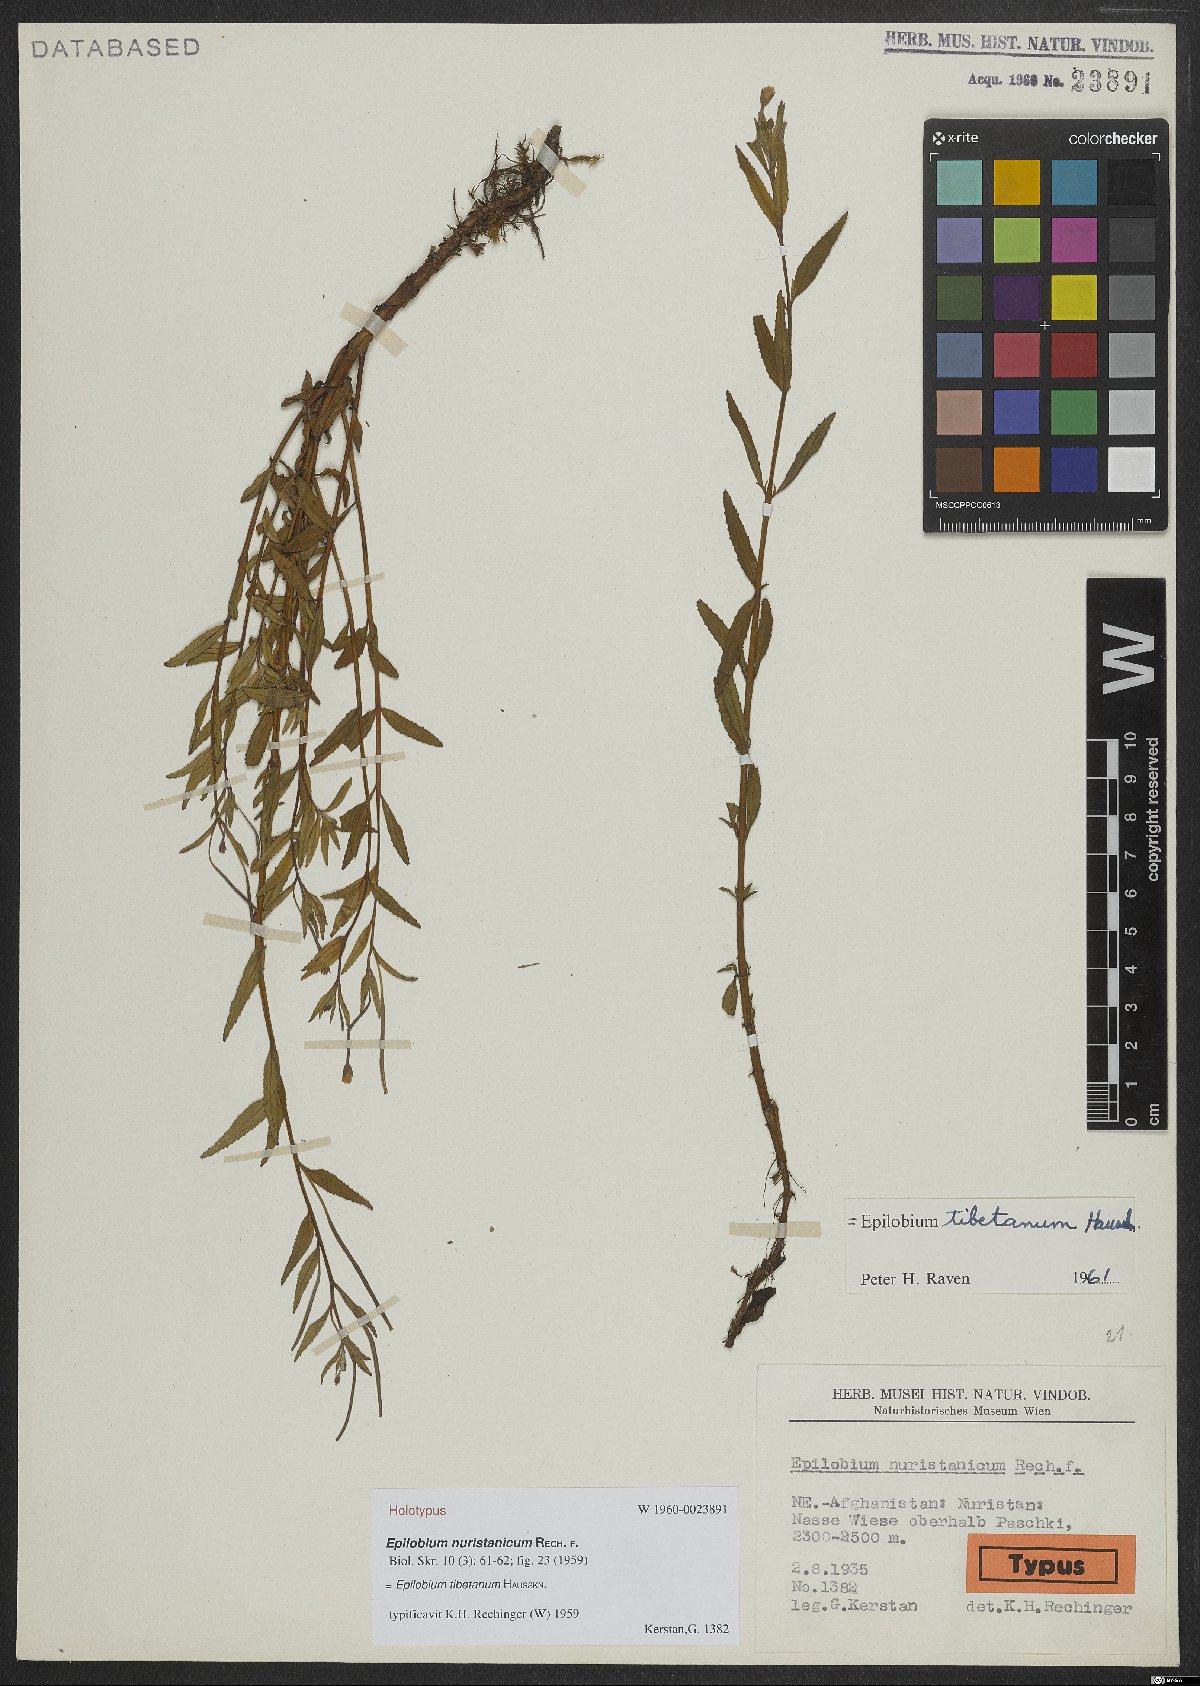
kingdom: Plantae
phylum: Tracheophyta
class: Magnoliopsida
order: Myrtales
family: Onagraceae
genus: Epilobium
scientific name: Epilobium tibetanum
